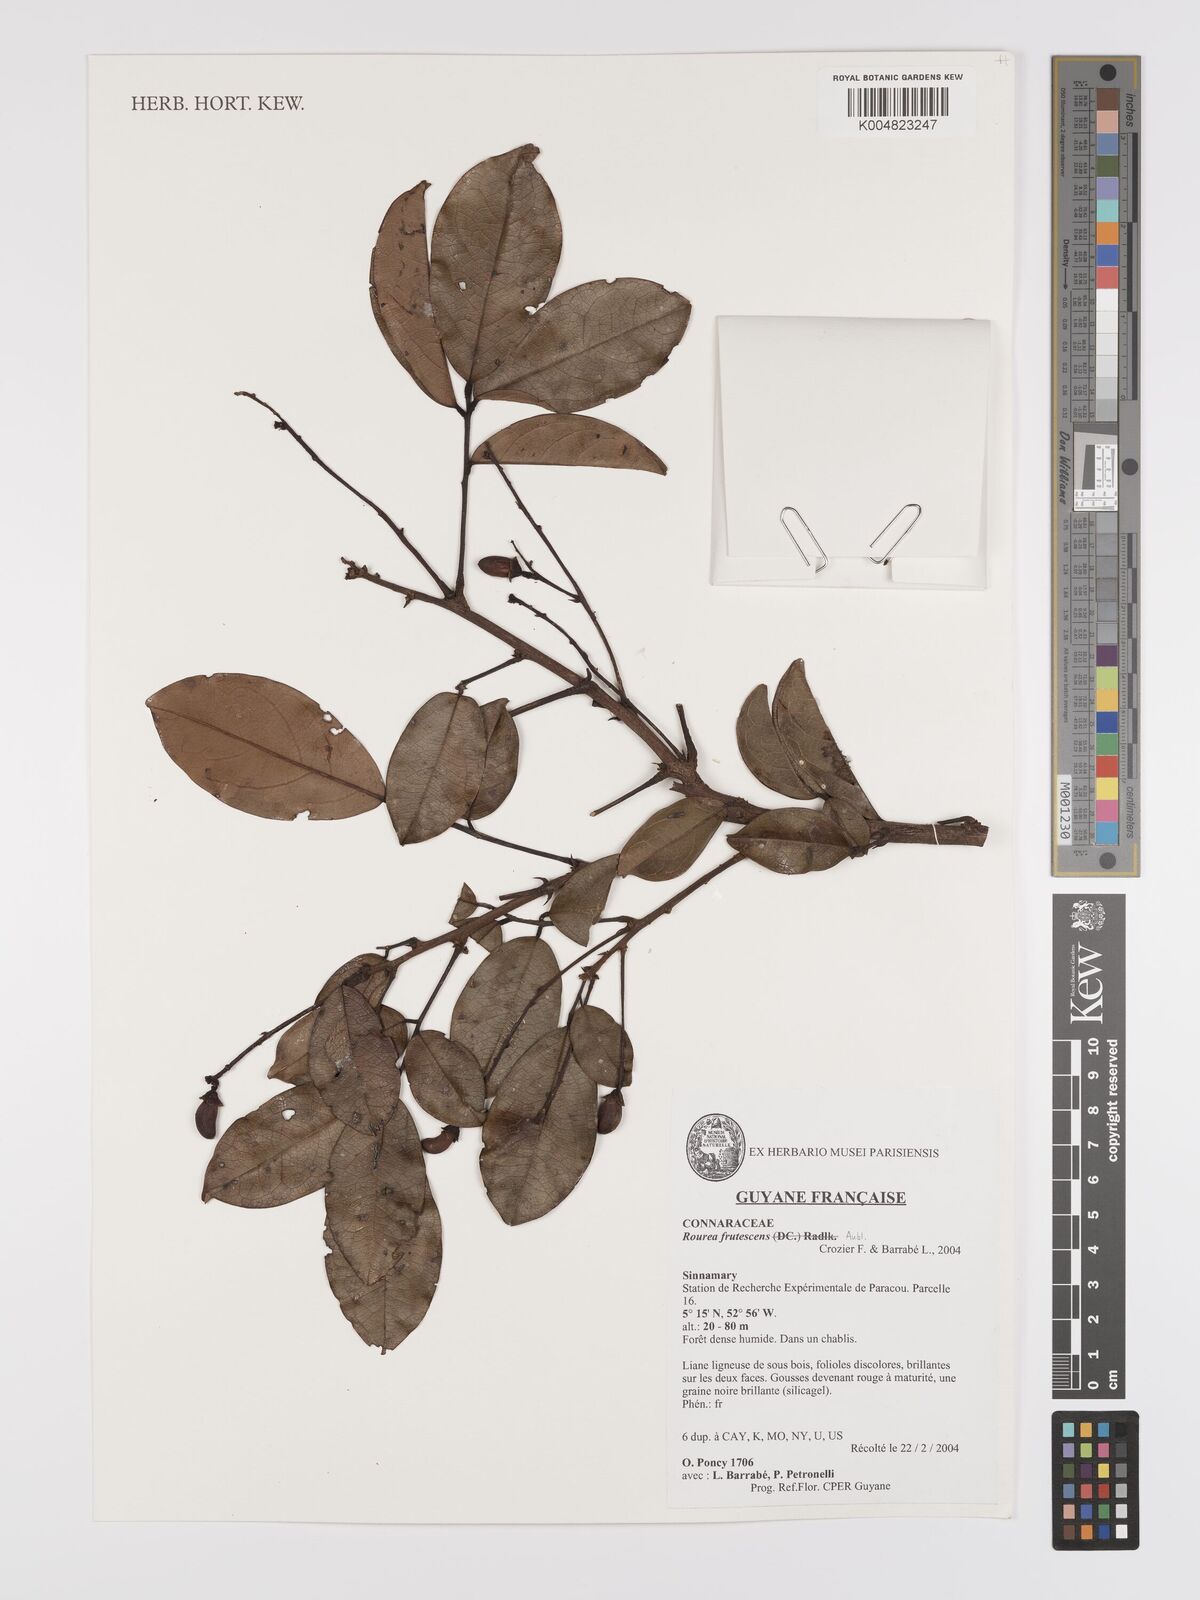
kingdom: Plantae
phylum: Tracheophyta
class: Magnoliopsida
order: Oxalidales
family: Connaraceae
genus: Rourea
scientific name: Rourea frutescens
